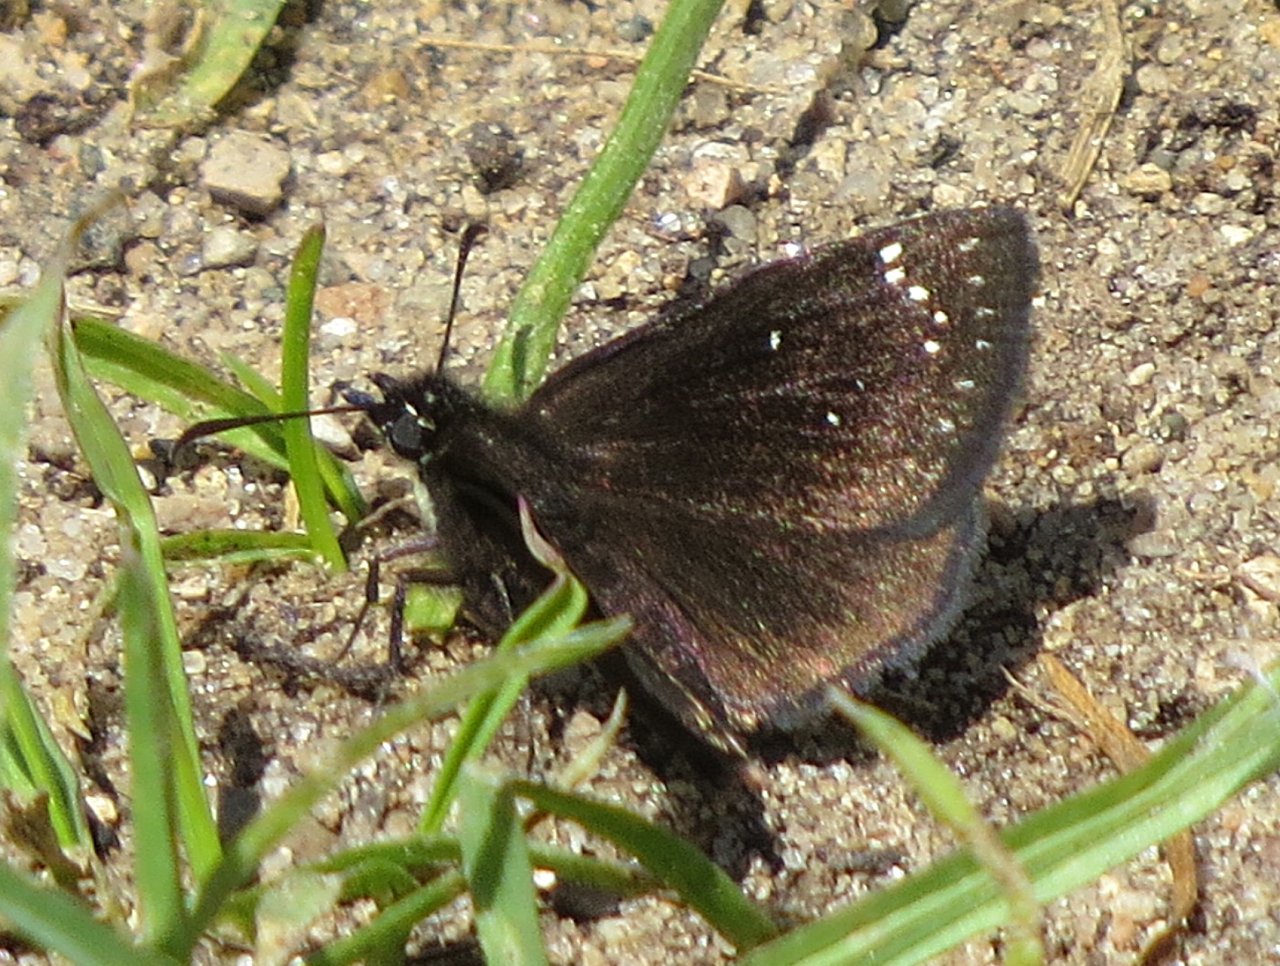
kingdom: Animalia
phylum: Arthropoda
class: Insecta
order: Lepidoptera
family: Hesperiidae
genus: Pholisora
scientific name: Pholisora catullus
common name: Common Sootywing
